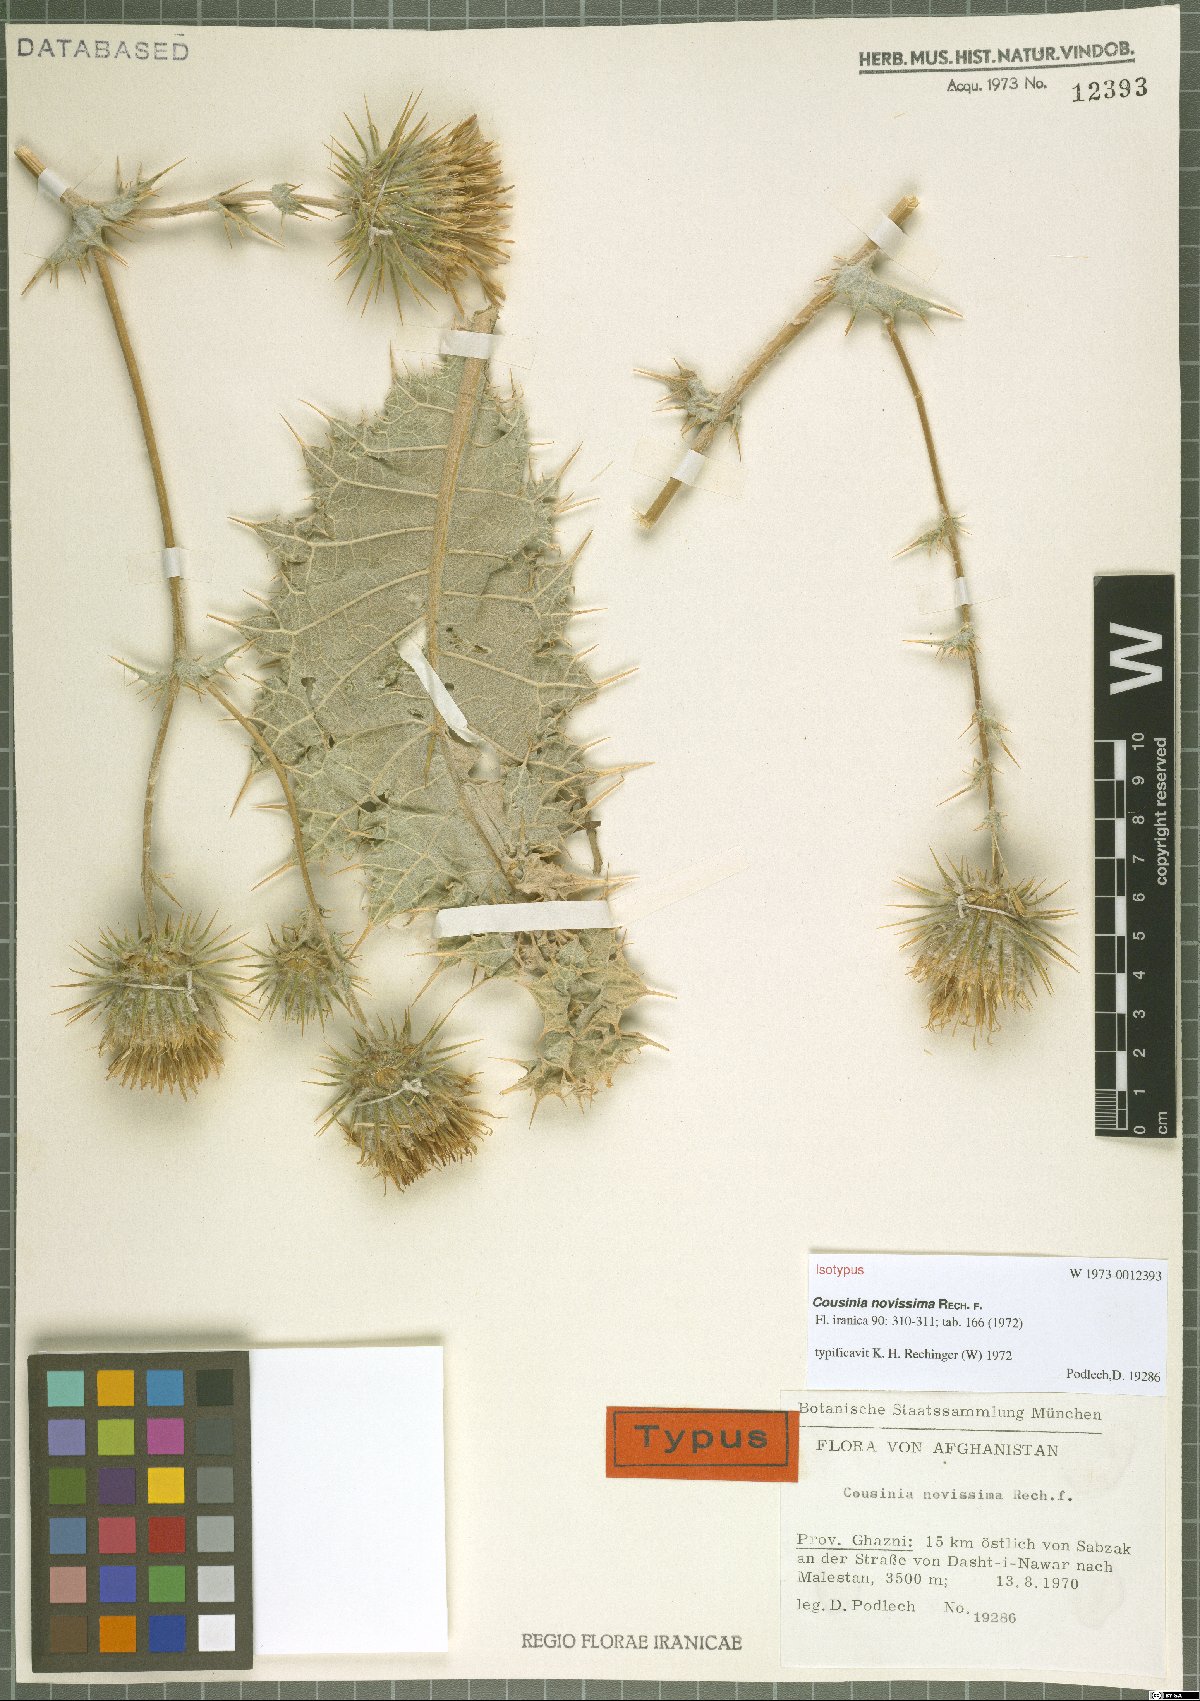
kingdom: Plantae
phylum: Tracheophyta
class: Magnoliopsida
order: Asterales
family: Asteraceae
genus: Cousinia
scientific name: Cousinia novissima
